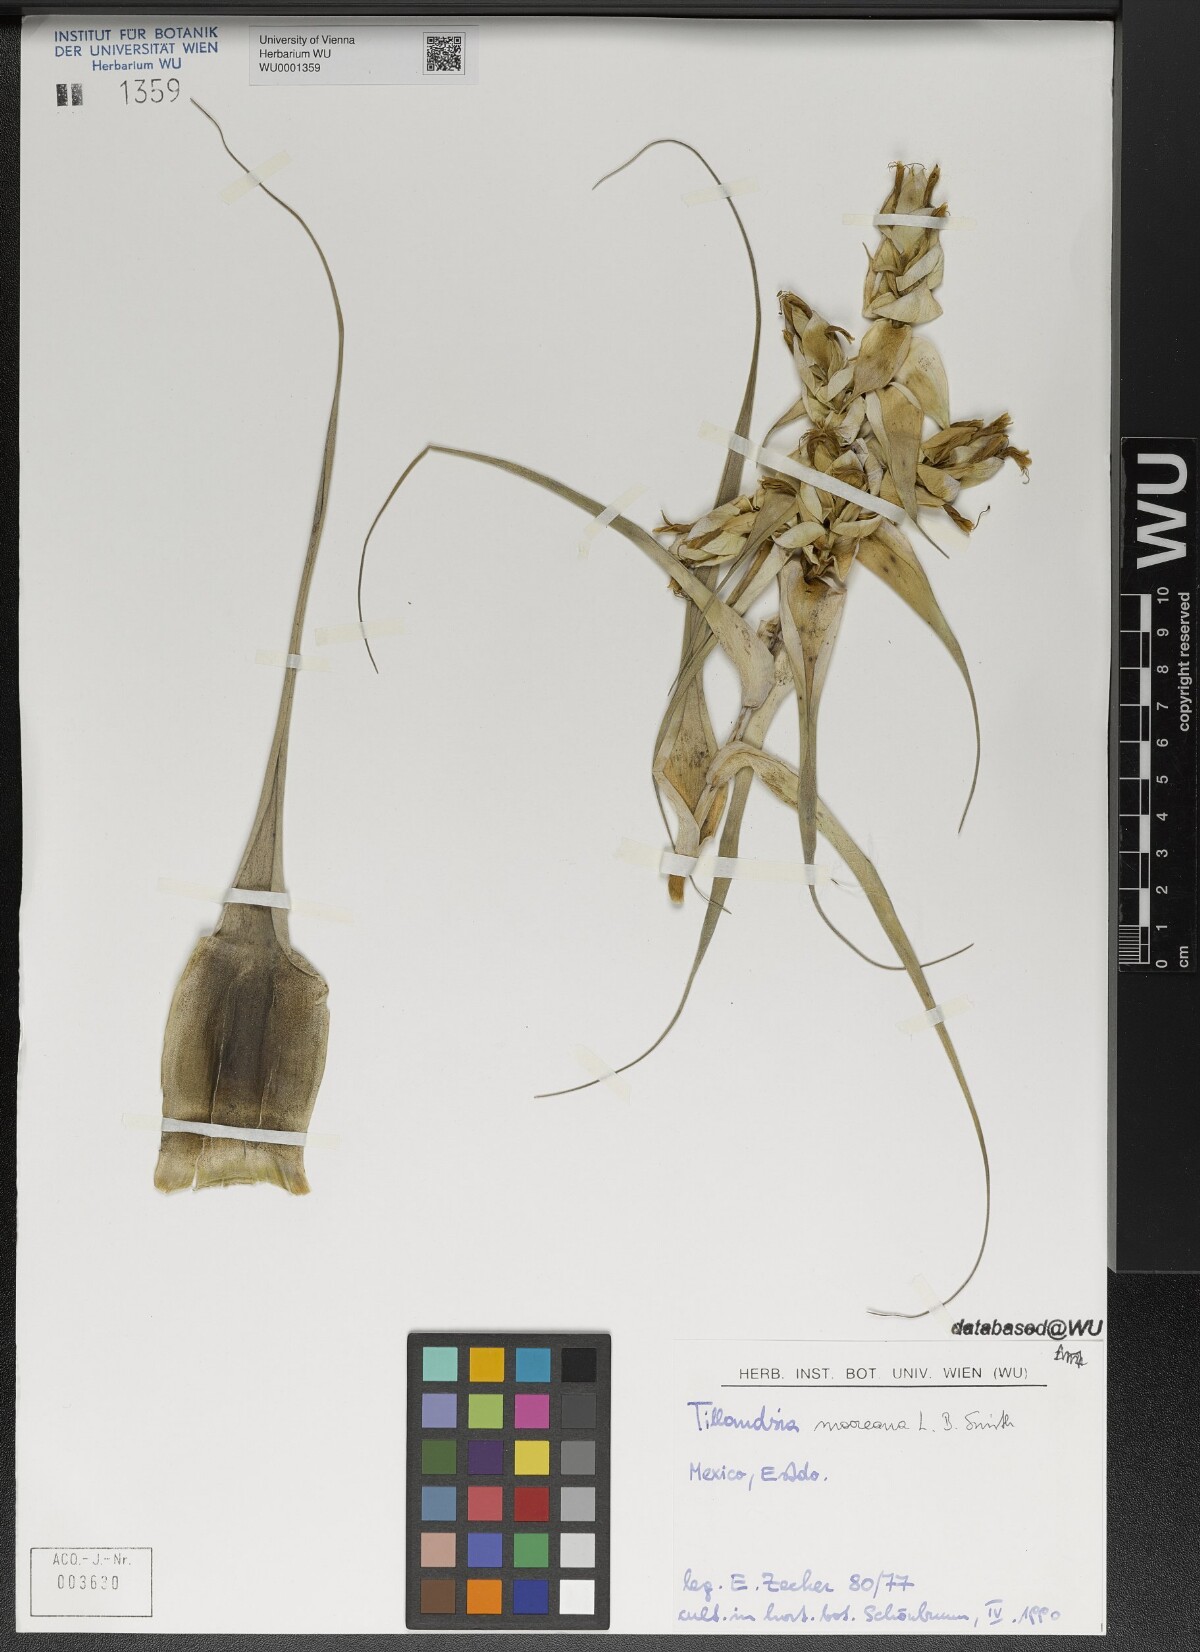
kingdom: Plantae
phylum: Tracheophyta
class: Liliopsida
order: Poales
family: Bromeliaceae
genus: Tillandsia
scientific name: Tillandsia mooreana
